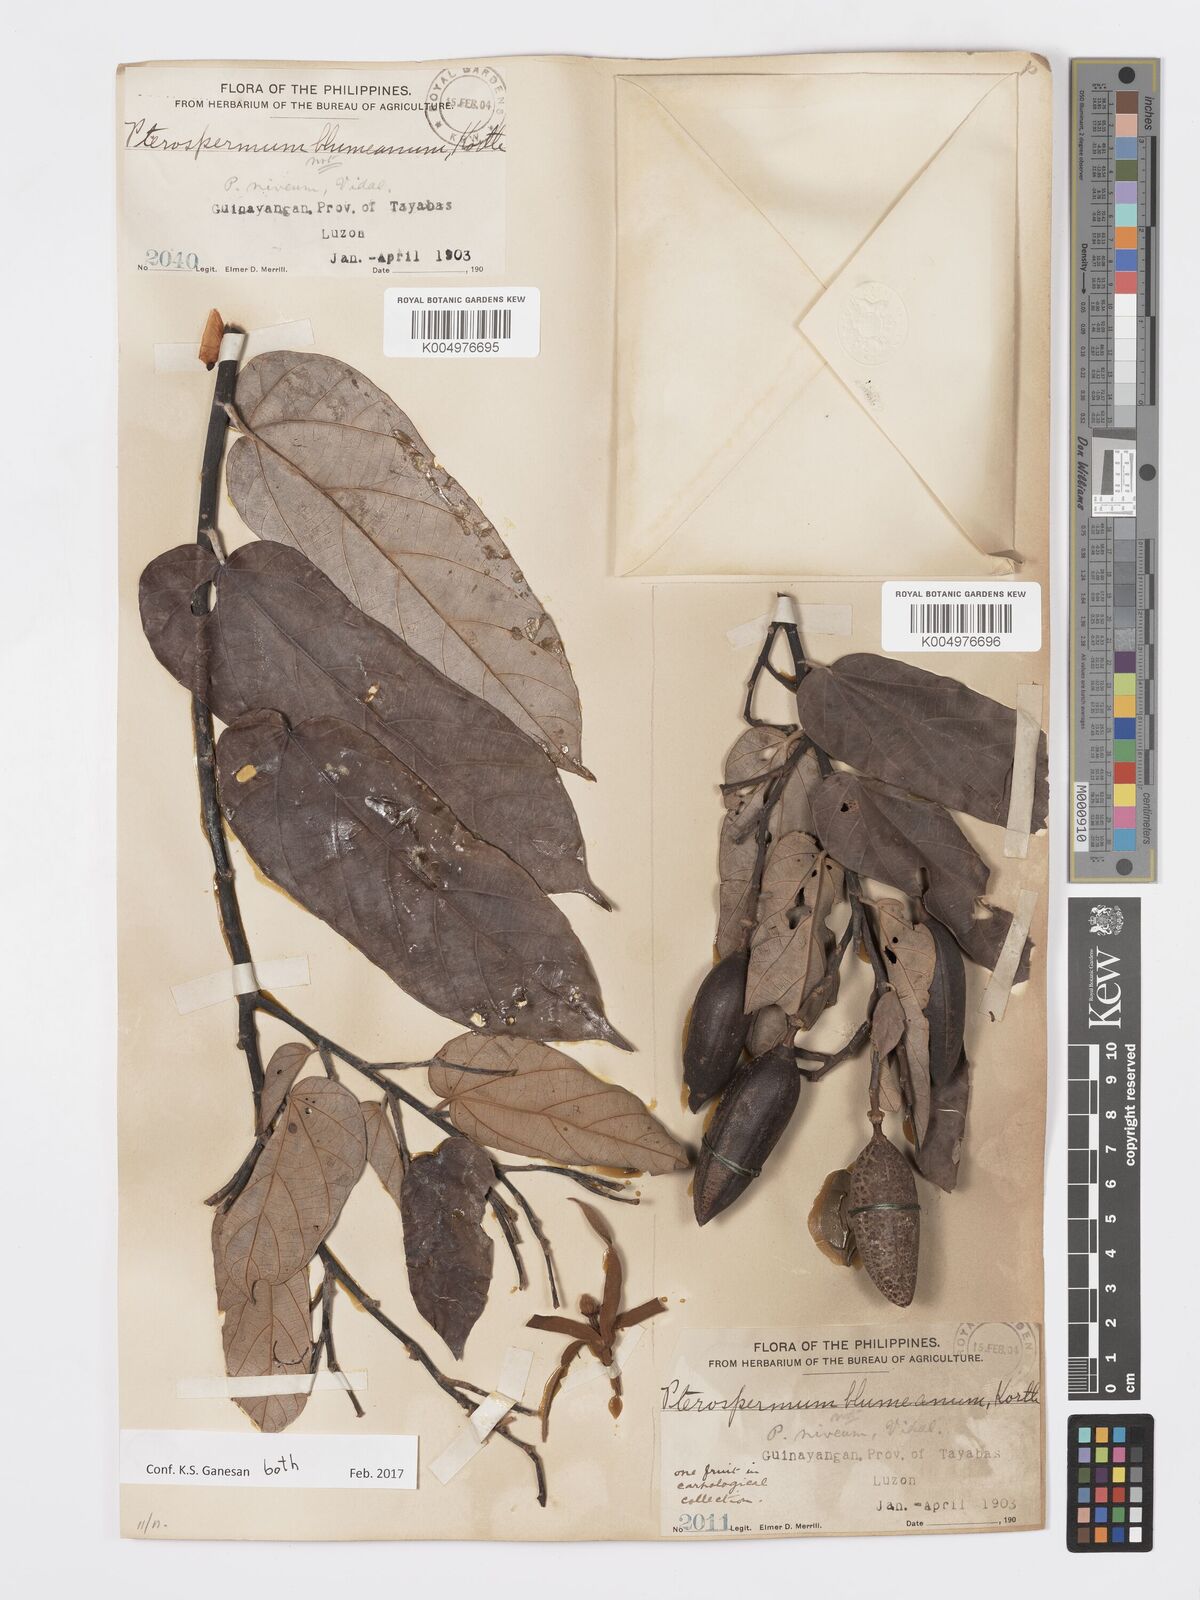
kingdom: Plantae
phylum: Tracheophyta
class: Magnoliopsida
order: Malvales
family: Malvaceae
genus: Pterospermum
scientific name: Pterospermum niveum
